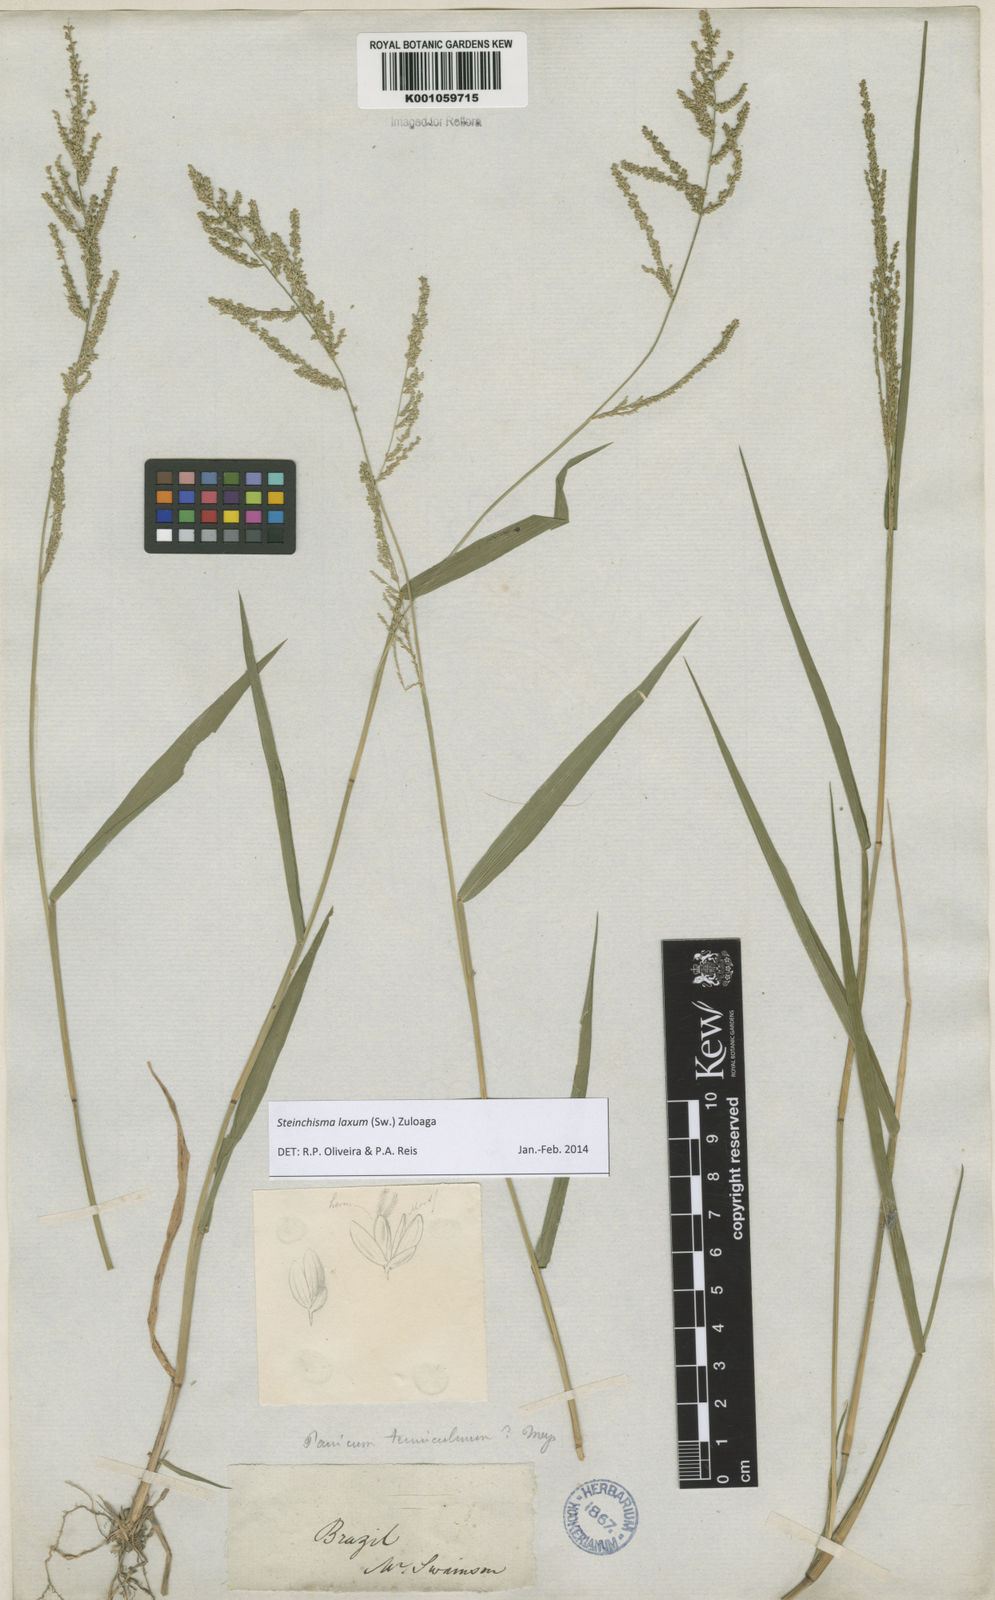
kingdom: Plantae
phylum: Tracheophyta
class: Liliopsida
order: Poales
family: Poaceae
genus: Steinchisma
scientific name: Steinchisma laxum
